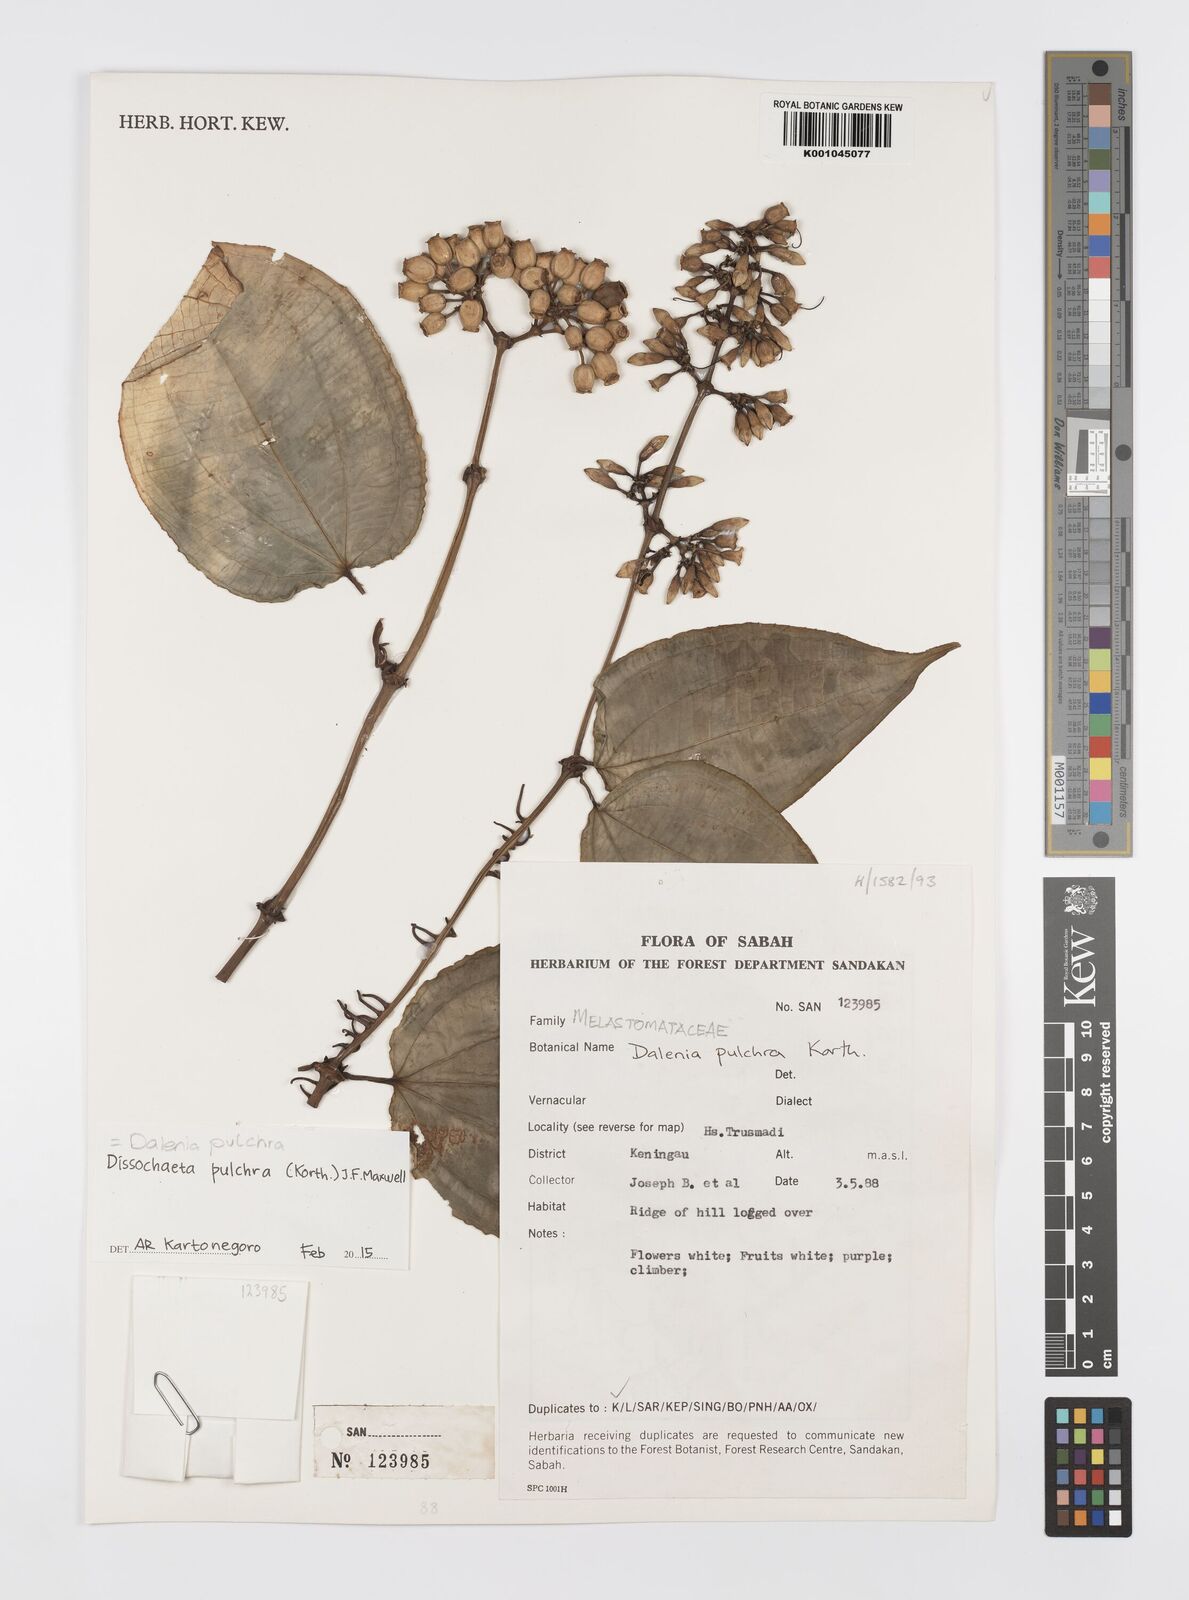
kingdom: Plantae
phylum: Tracheophyta
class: Magnoliopsida
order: Myrtales
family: Melastomataceae
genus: Dalenia
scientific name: Dalenia pulchra
